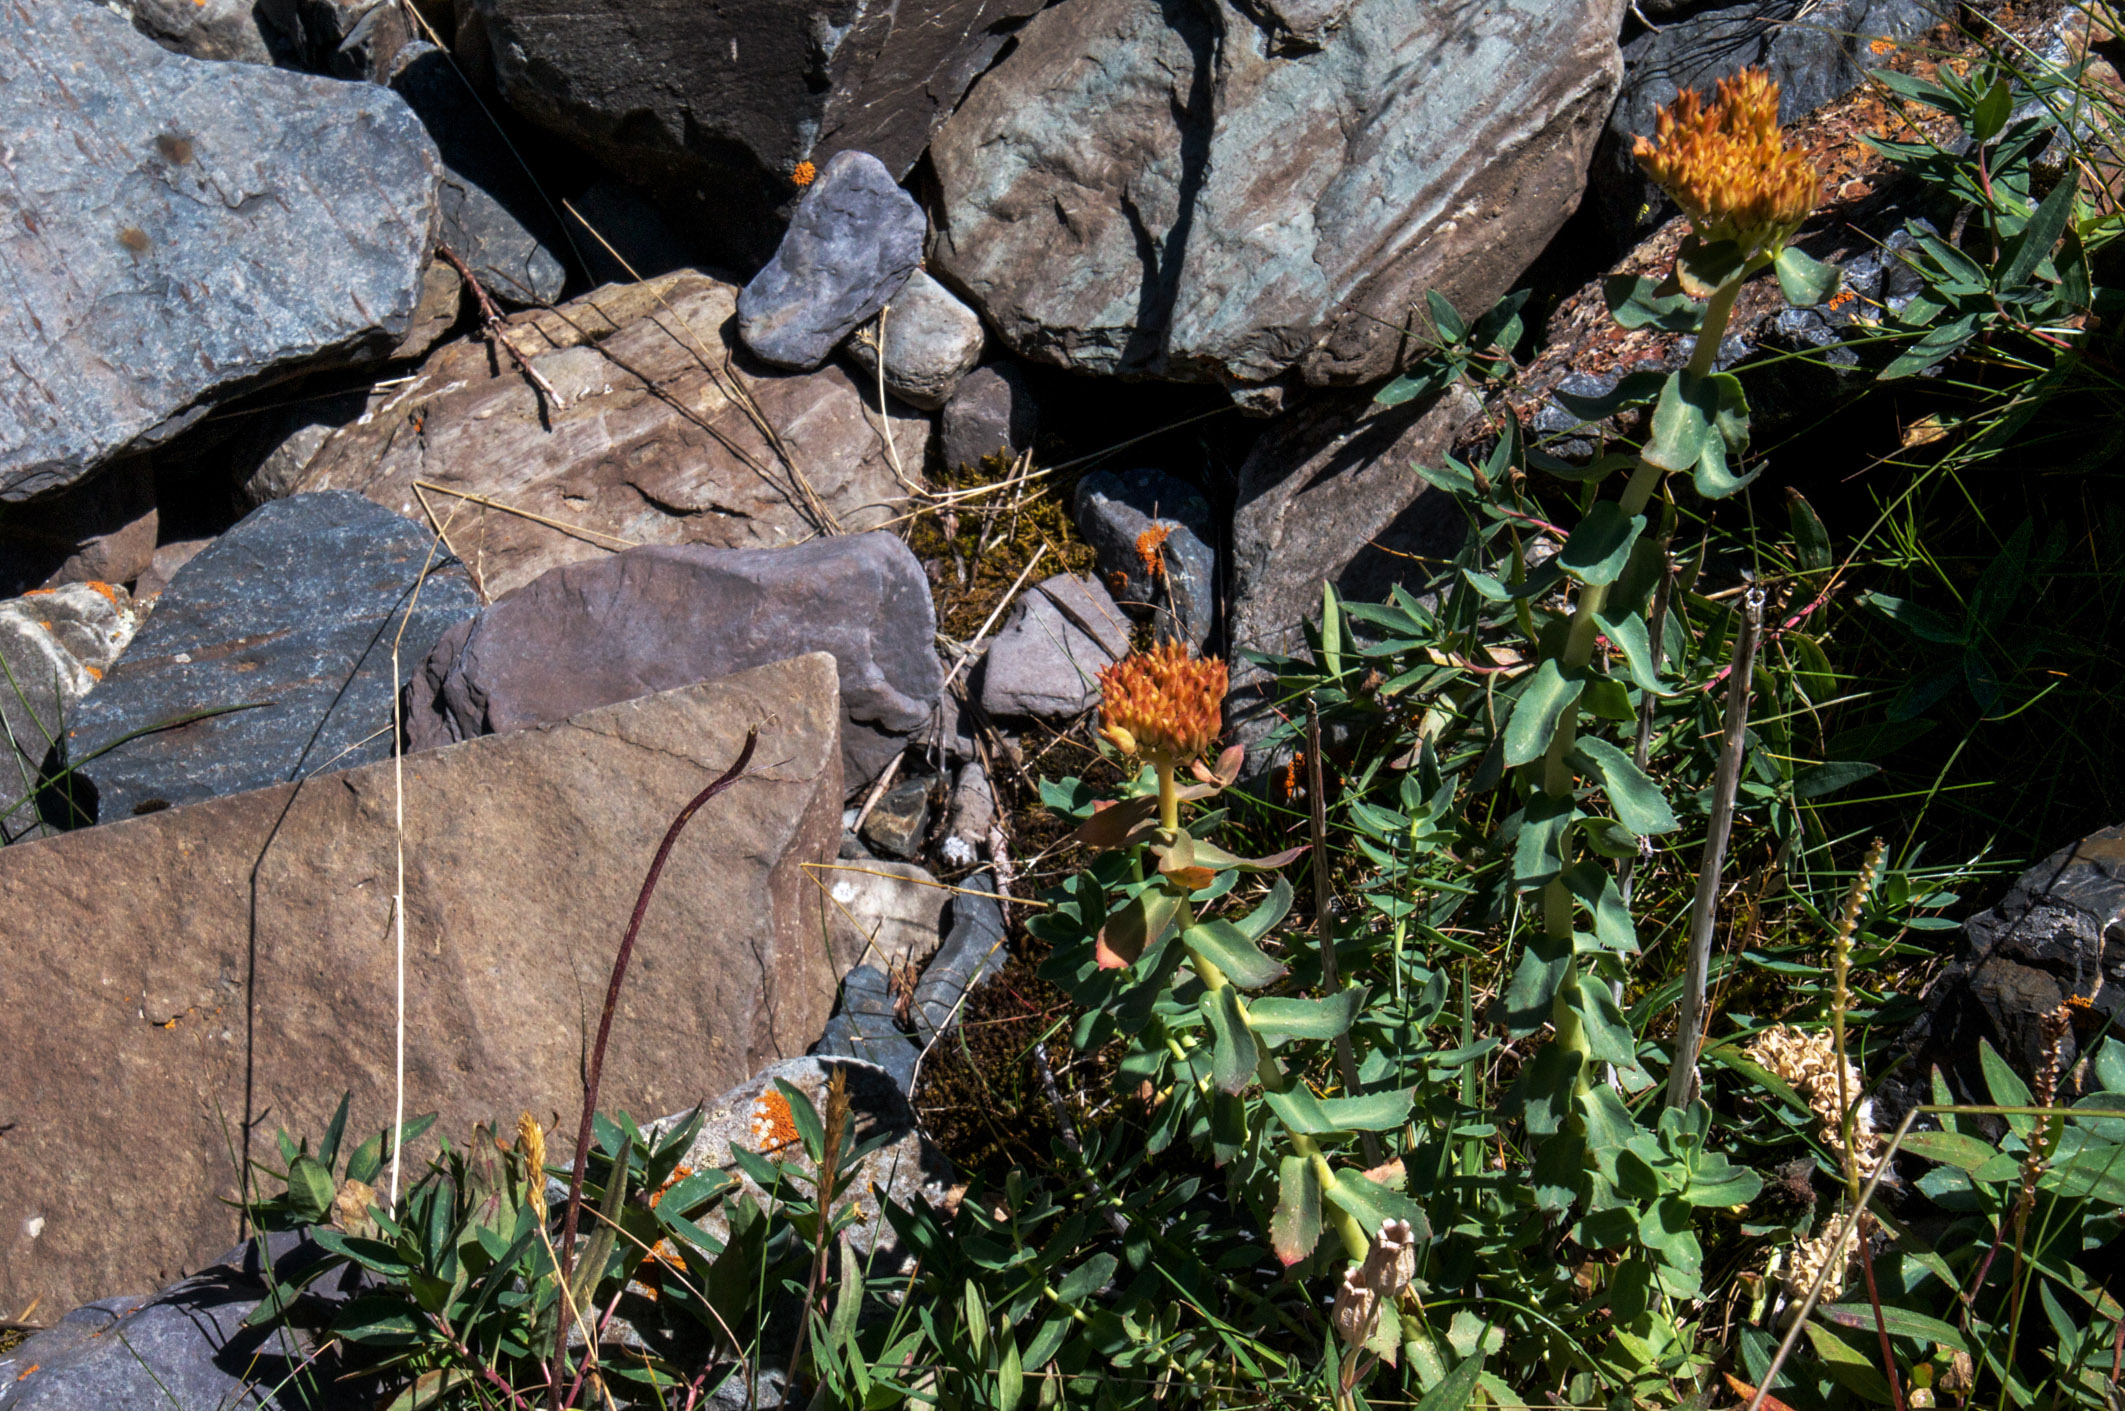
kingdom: Plantae
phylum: Tracheophyta
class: Magnoliopsida
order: Saxifragales
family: Crassulaceae
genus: Rhodiola
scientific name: Rhodiola rosea
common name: Roseroot
